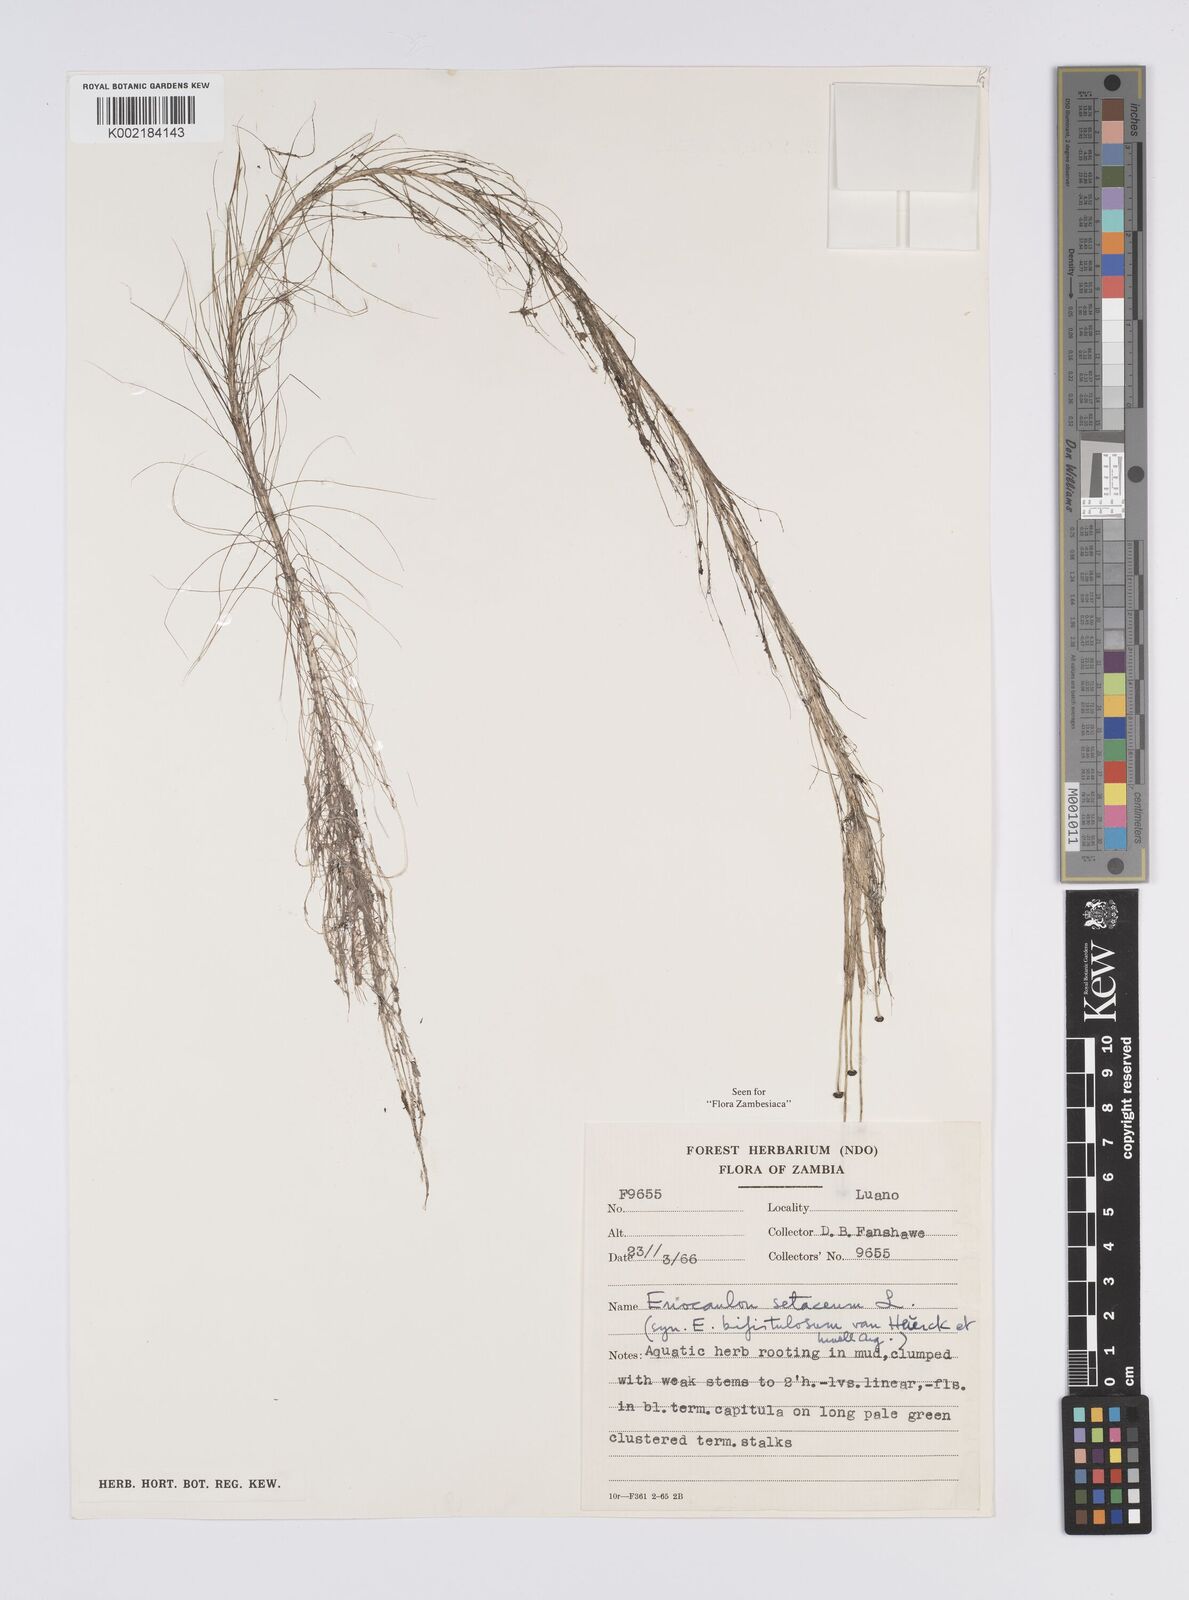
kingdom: Plantae
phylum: Tracheophyta
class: Liliopsida
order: Poales
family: Eriocaulaceae
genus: Eriocaulon
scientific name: Eriocaulon setaceum
